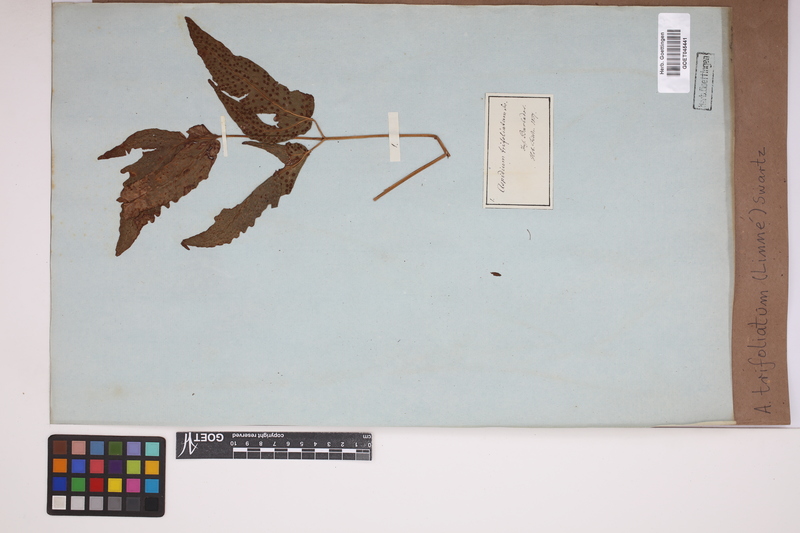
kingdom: Plantae
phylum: Tracheophyta
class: Polypodiopsida
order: Polypodiales
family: Tectariaceae
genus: Tectaria
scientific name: Tectaria trifoliata
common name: Threeleaf halberd fern
